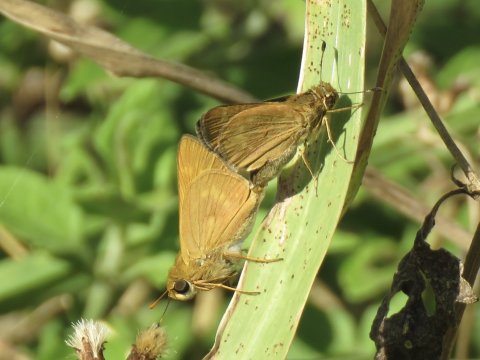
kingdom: Animalia
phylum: Arthropoda
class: Insecta
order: Lepidoptera
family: Hesperiidae
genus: Wallengrenia
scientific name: Wallengrenia otho
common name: Southern Broken-Dash
